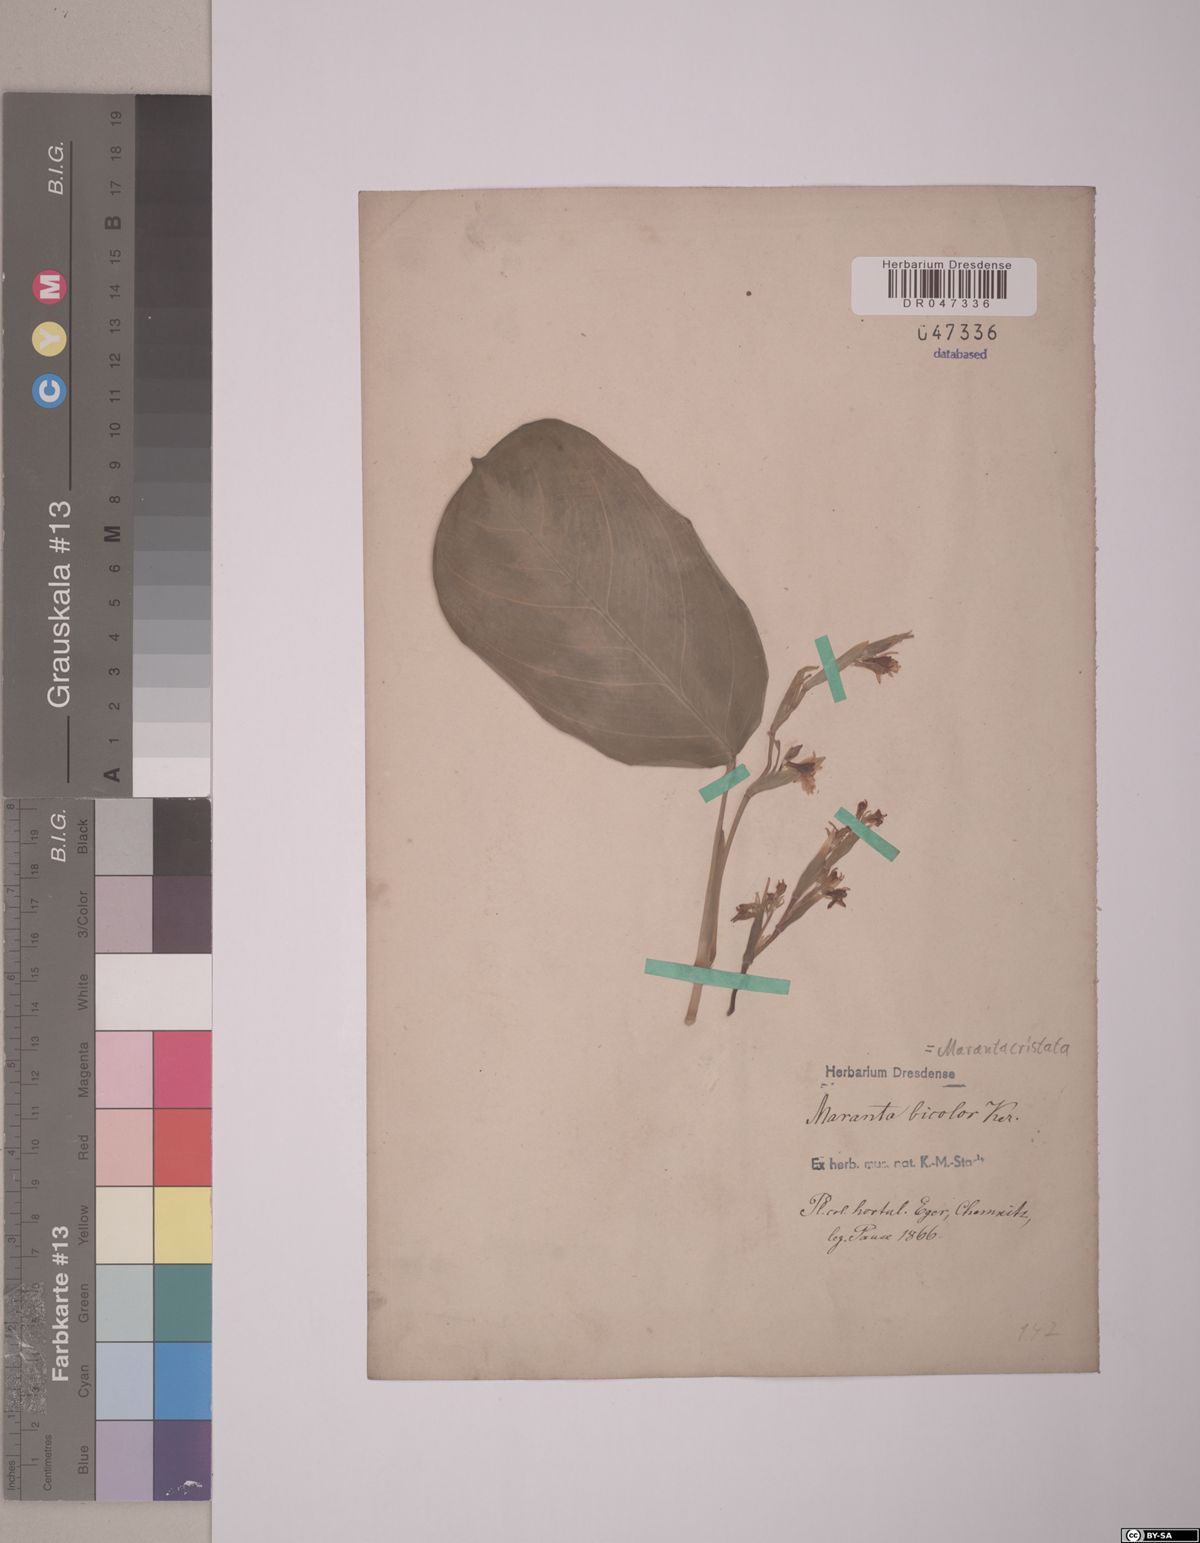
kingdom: Plantae
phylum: Tracheophyta
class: Liliopsida
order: Zingiberales
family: Marantaceae
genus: Maranta
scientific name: Maranta cristata
